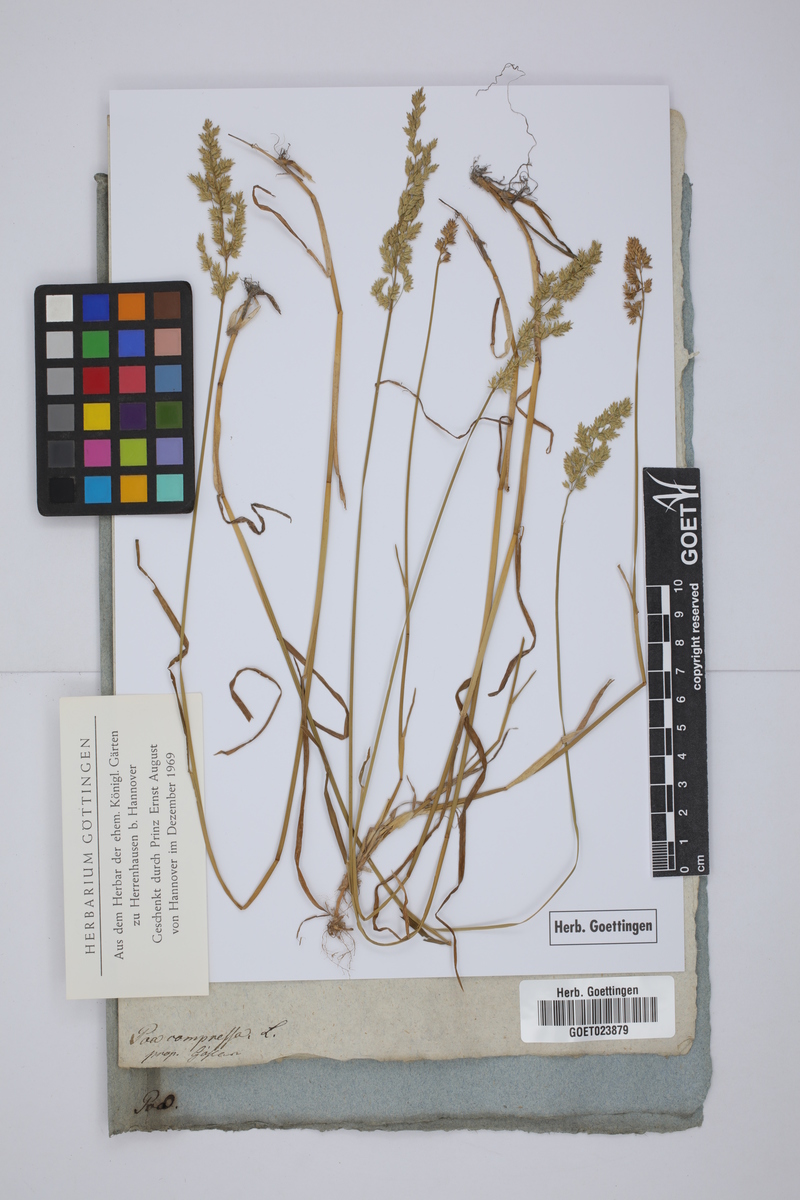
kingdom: Plantae
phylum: Tracheophyta
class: Liliopsida
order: Poales
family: Poaceae
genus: Poa
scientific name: Poa compressa
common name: Canada bluegrass
